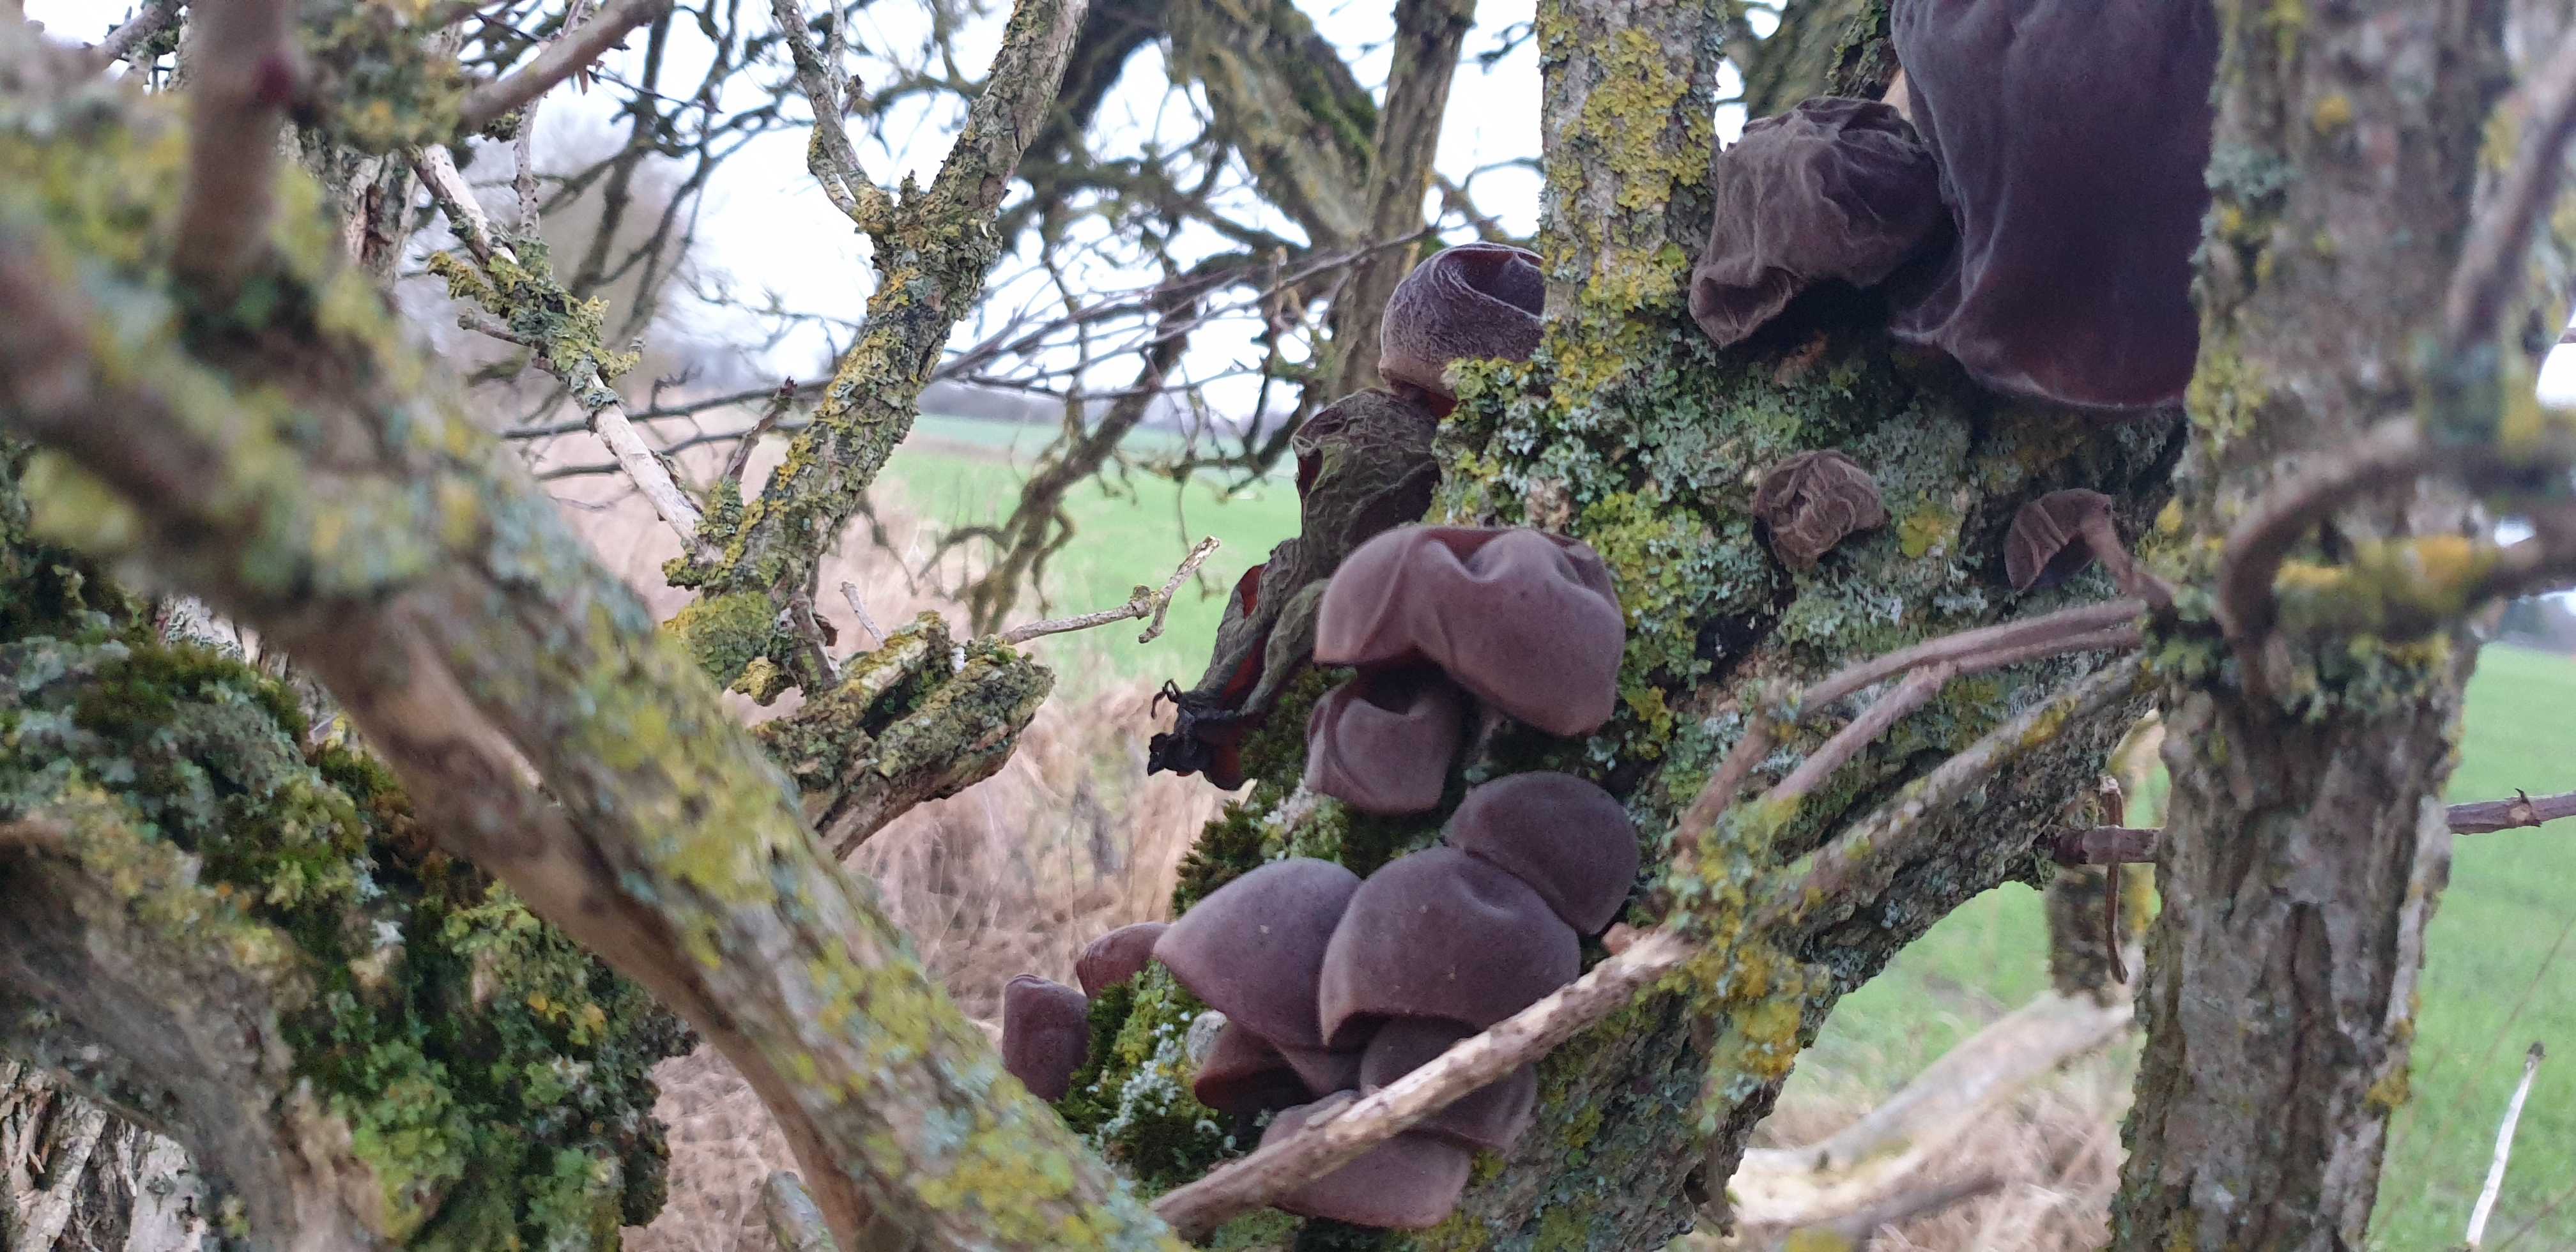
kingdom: Fungi
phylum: Basidiomycota
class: Agaricomycetes
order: Auriculariales
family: Auriculariaceae
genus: Auricularia
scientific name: Auricularia auricula-judae
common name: almindelig judasøre
